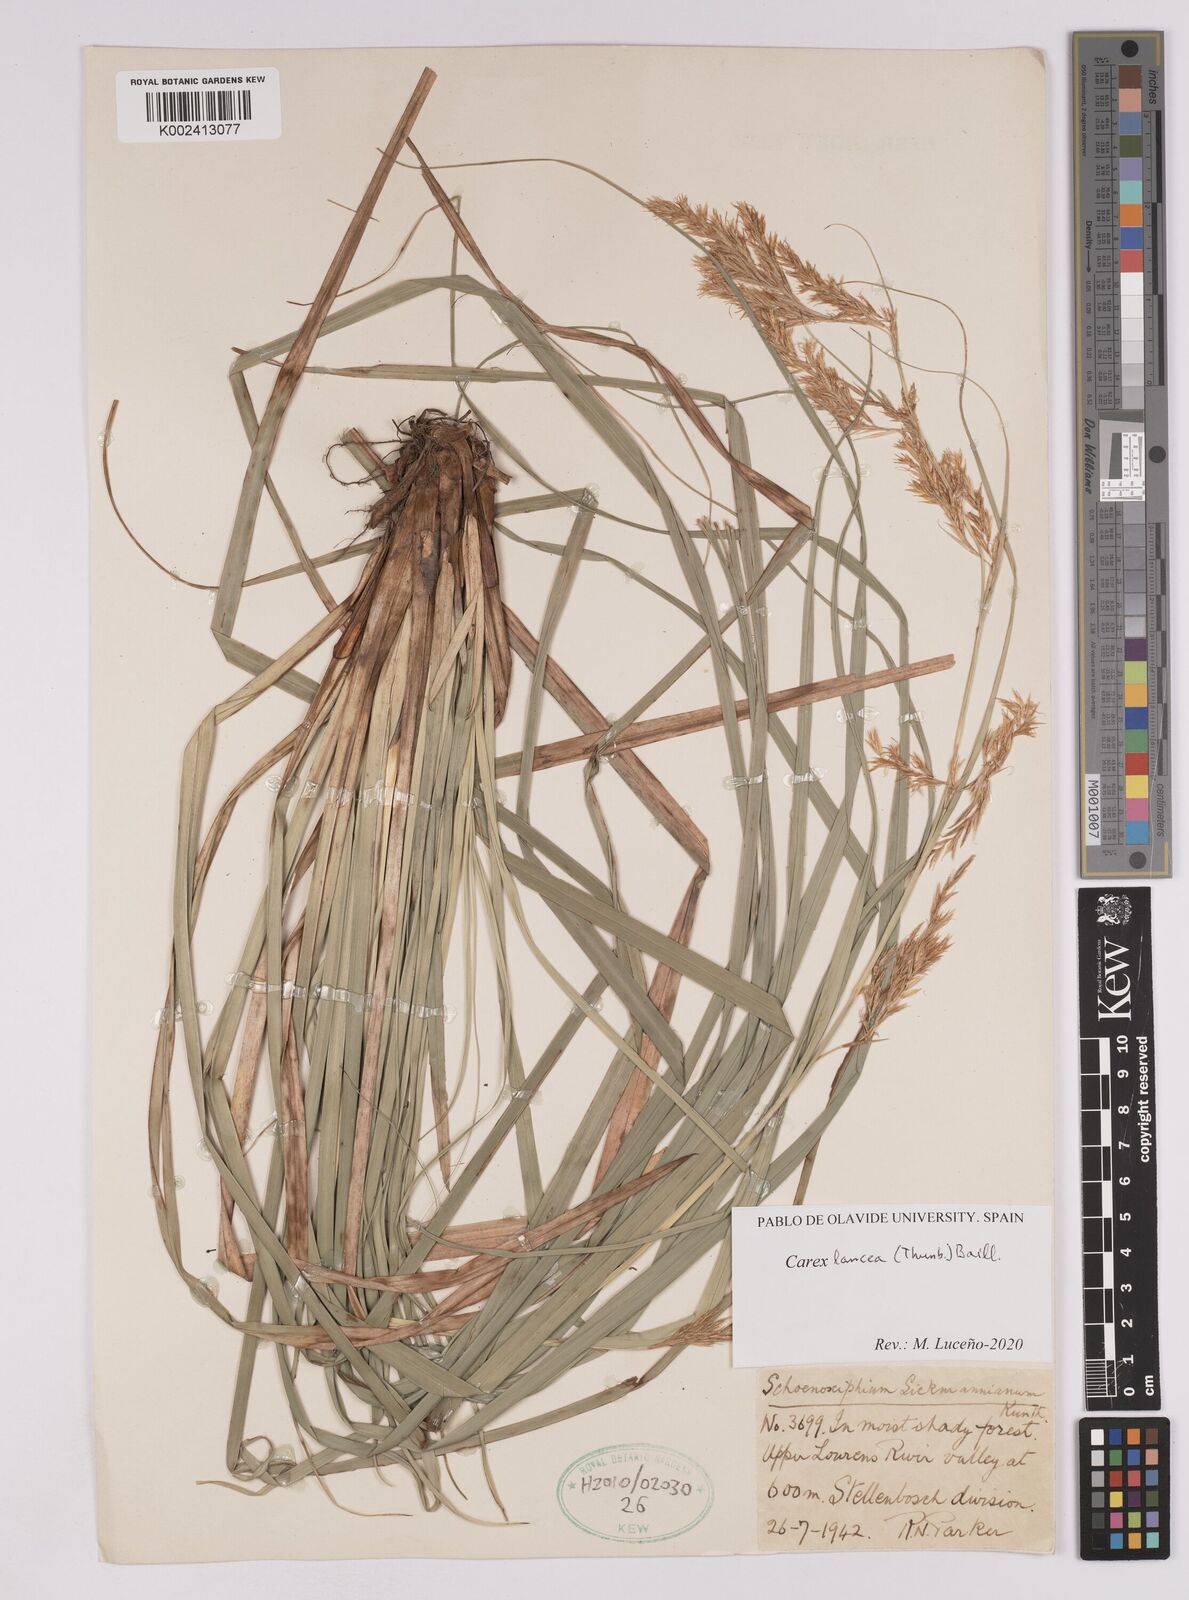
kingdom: Plantae
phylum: Tracheophyta
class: Liliopsida
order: Poales
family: Cyperaceae
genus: Carex
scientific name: Carex lancea
